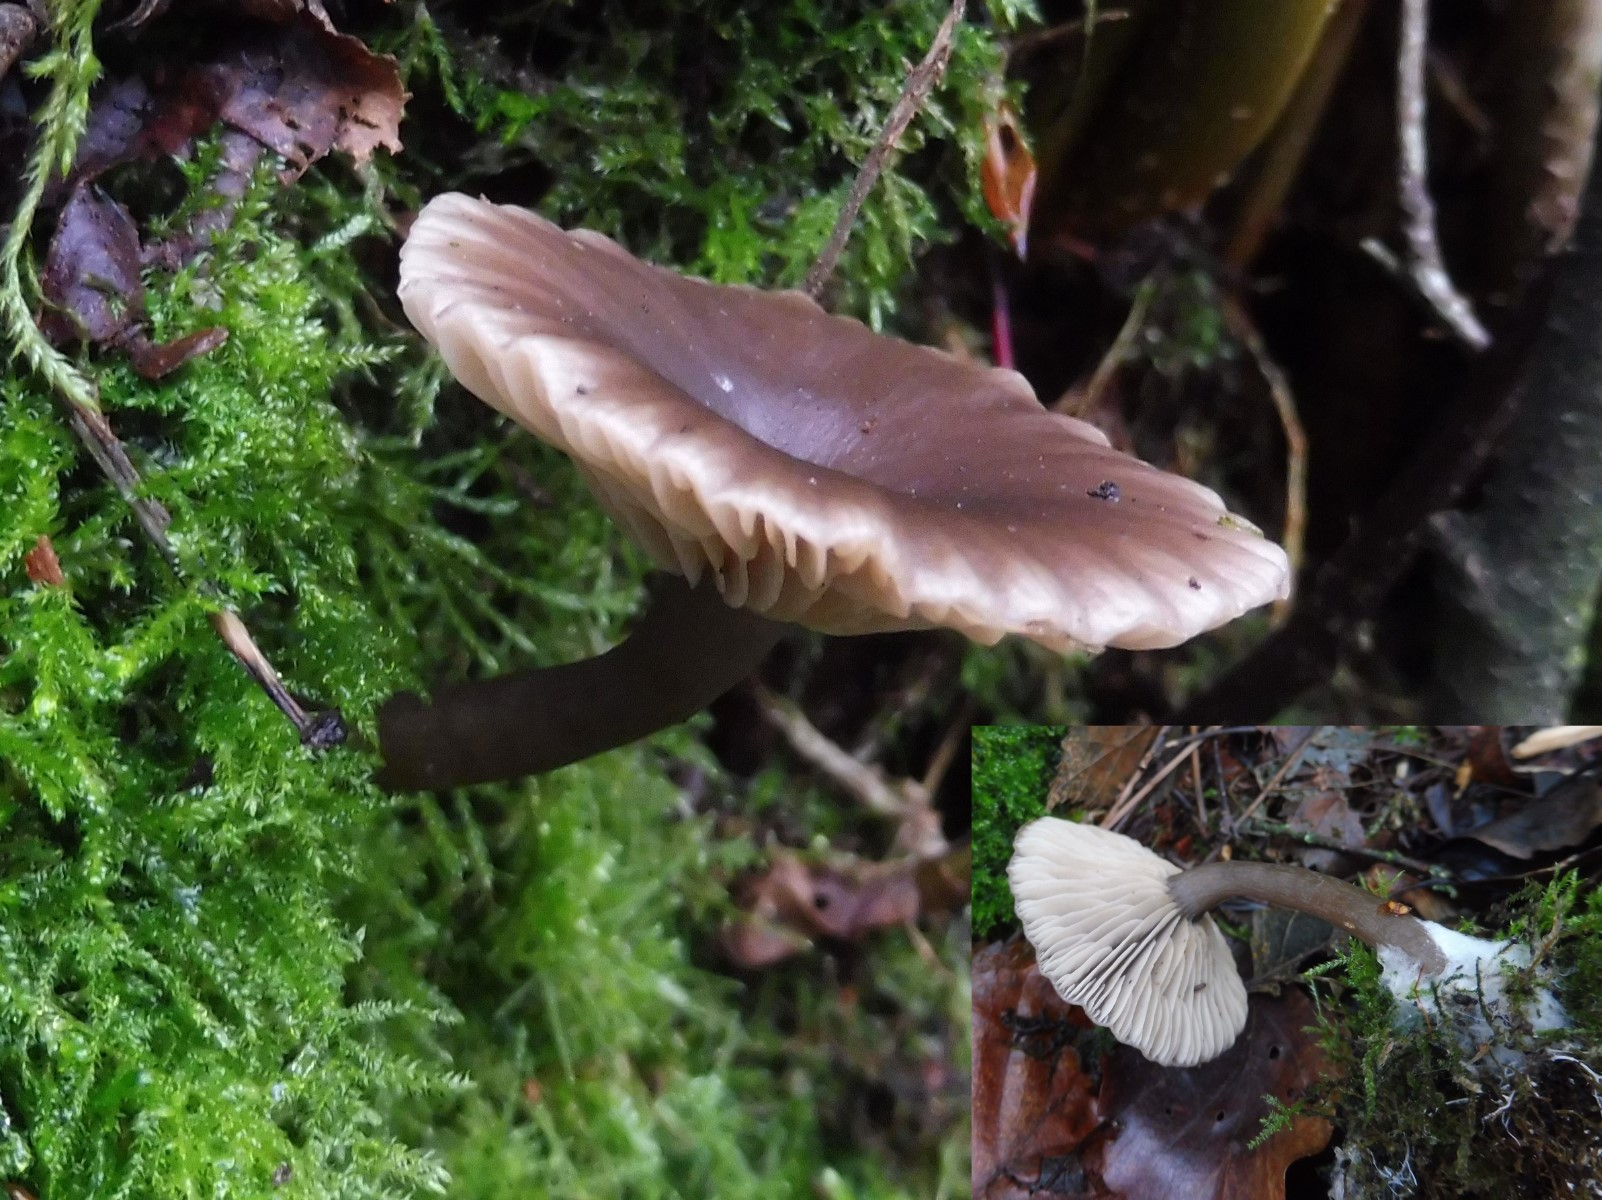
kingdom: Fungi
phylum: Basidiomycota
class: Agaricomycetes
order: Agaricales
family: Pseudoclitocybaceae
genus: Pseudoclitocybe
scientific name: Pseudoclitocybe cyathiformis
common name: almindelig bægertragthat
